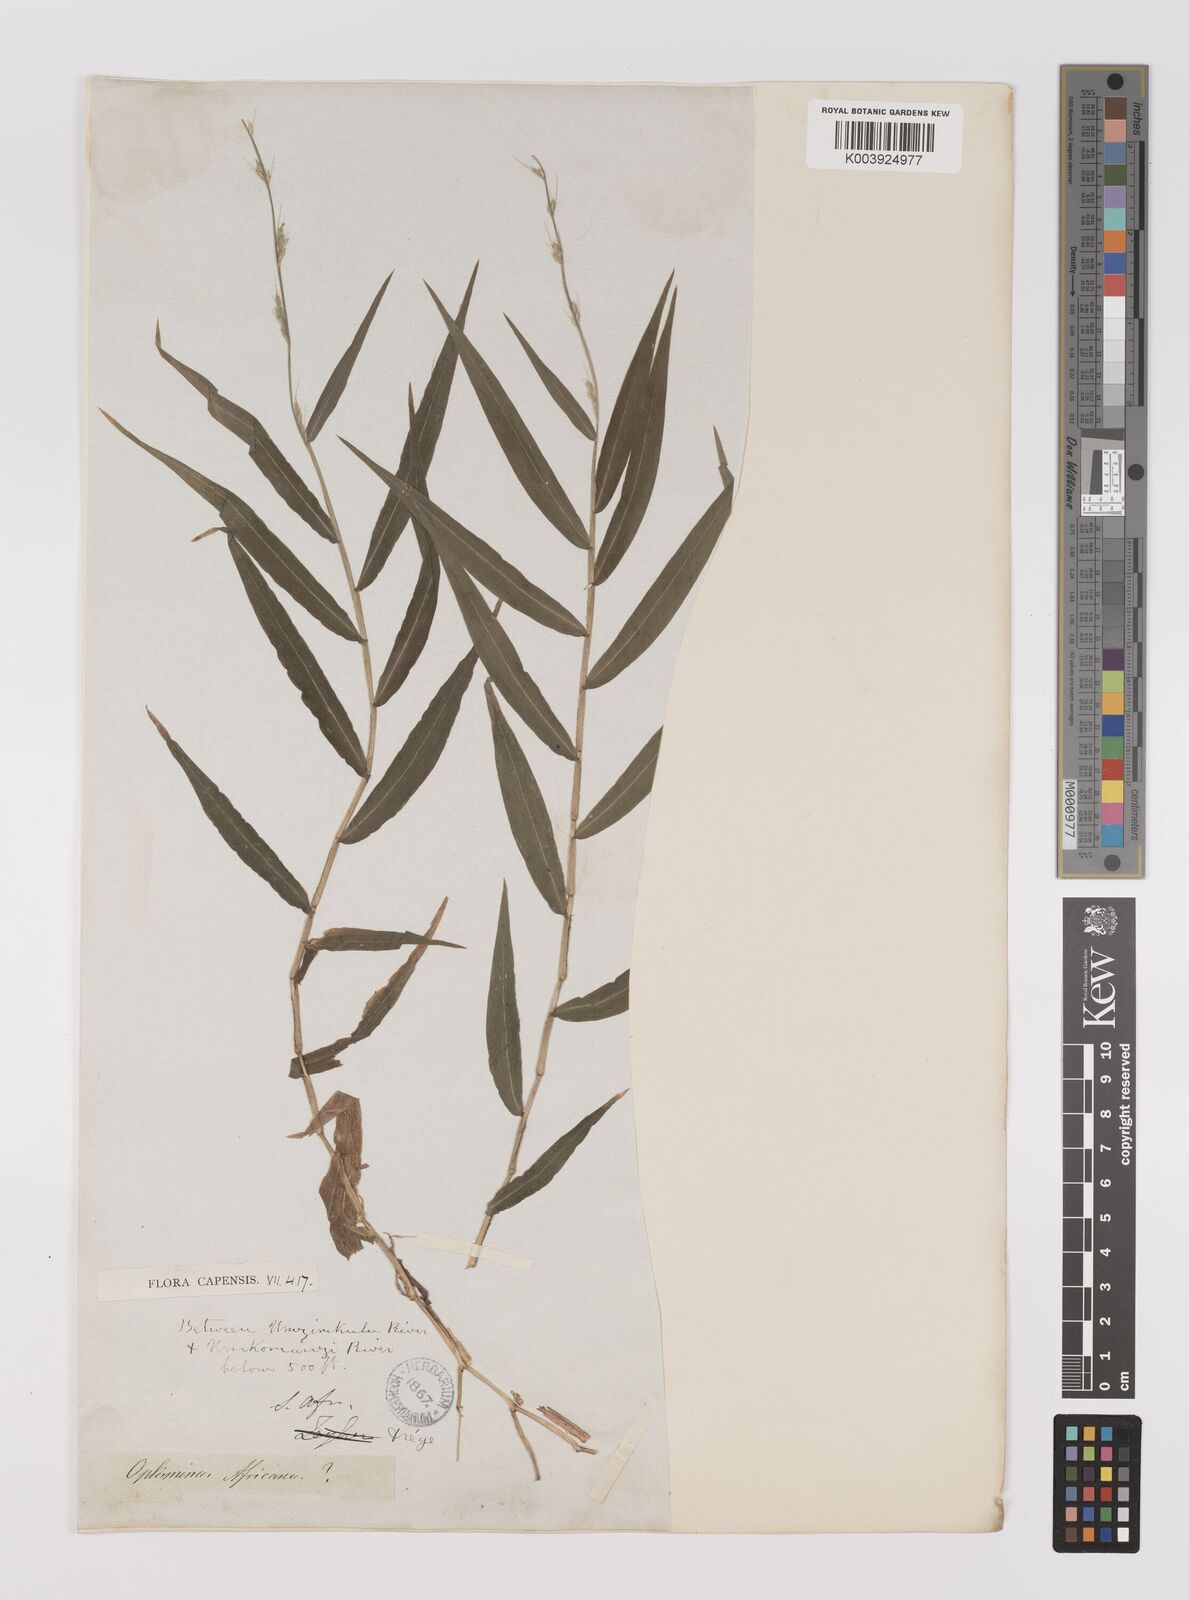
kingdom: Plantae
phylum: Tracheophyta
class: Liliopsida
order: Poales
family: Poaceae
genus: Oplismenus
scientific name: Oplismenus hirtellus
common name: Basketgrass
